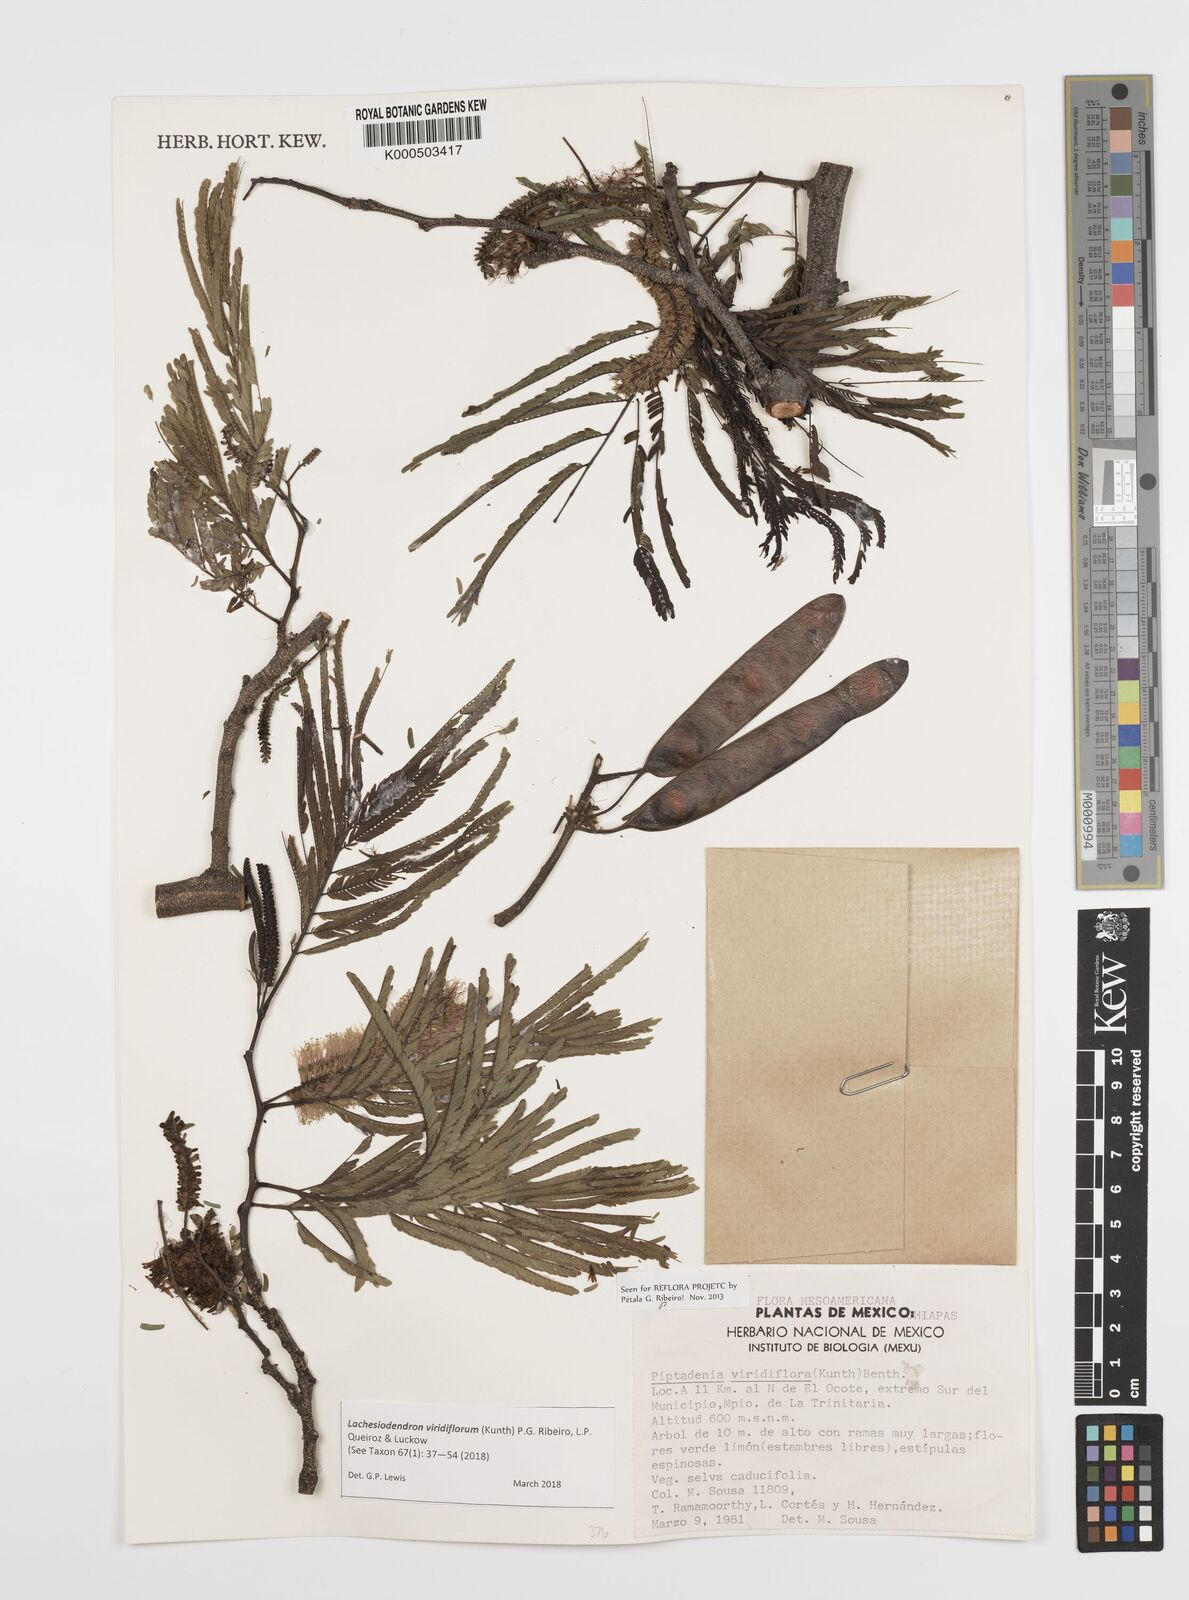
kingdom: Plantae
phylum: Tracheophyta
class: Magnoliopsida
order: Fabales
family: Fabaceae
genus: Lachesiodendron
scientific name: Lachesiodendron viridiflorum
